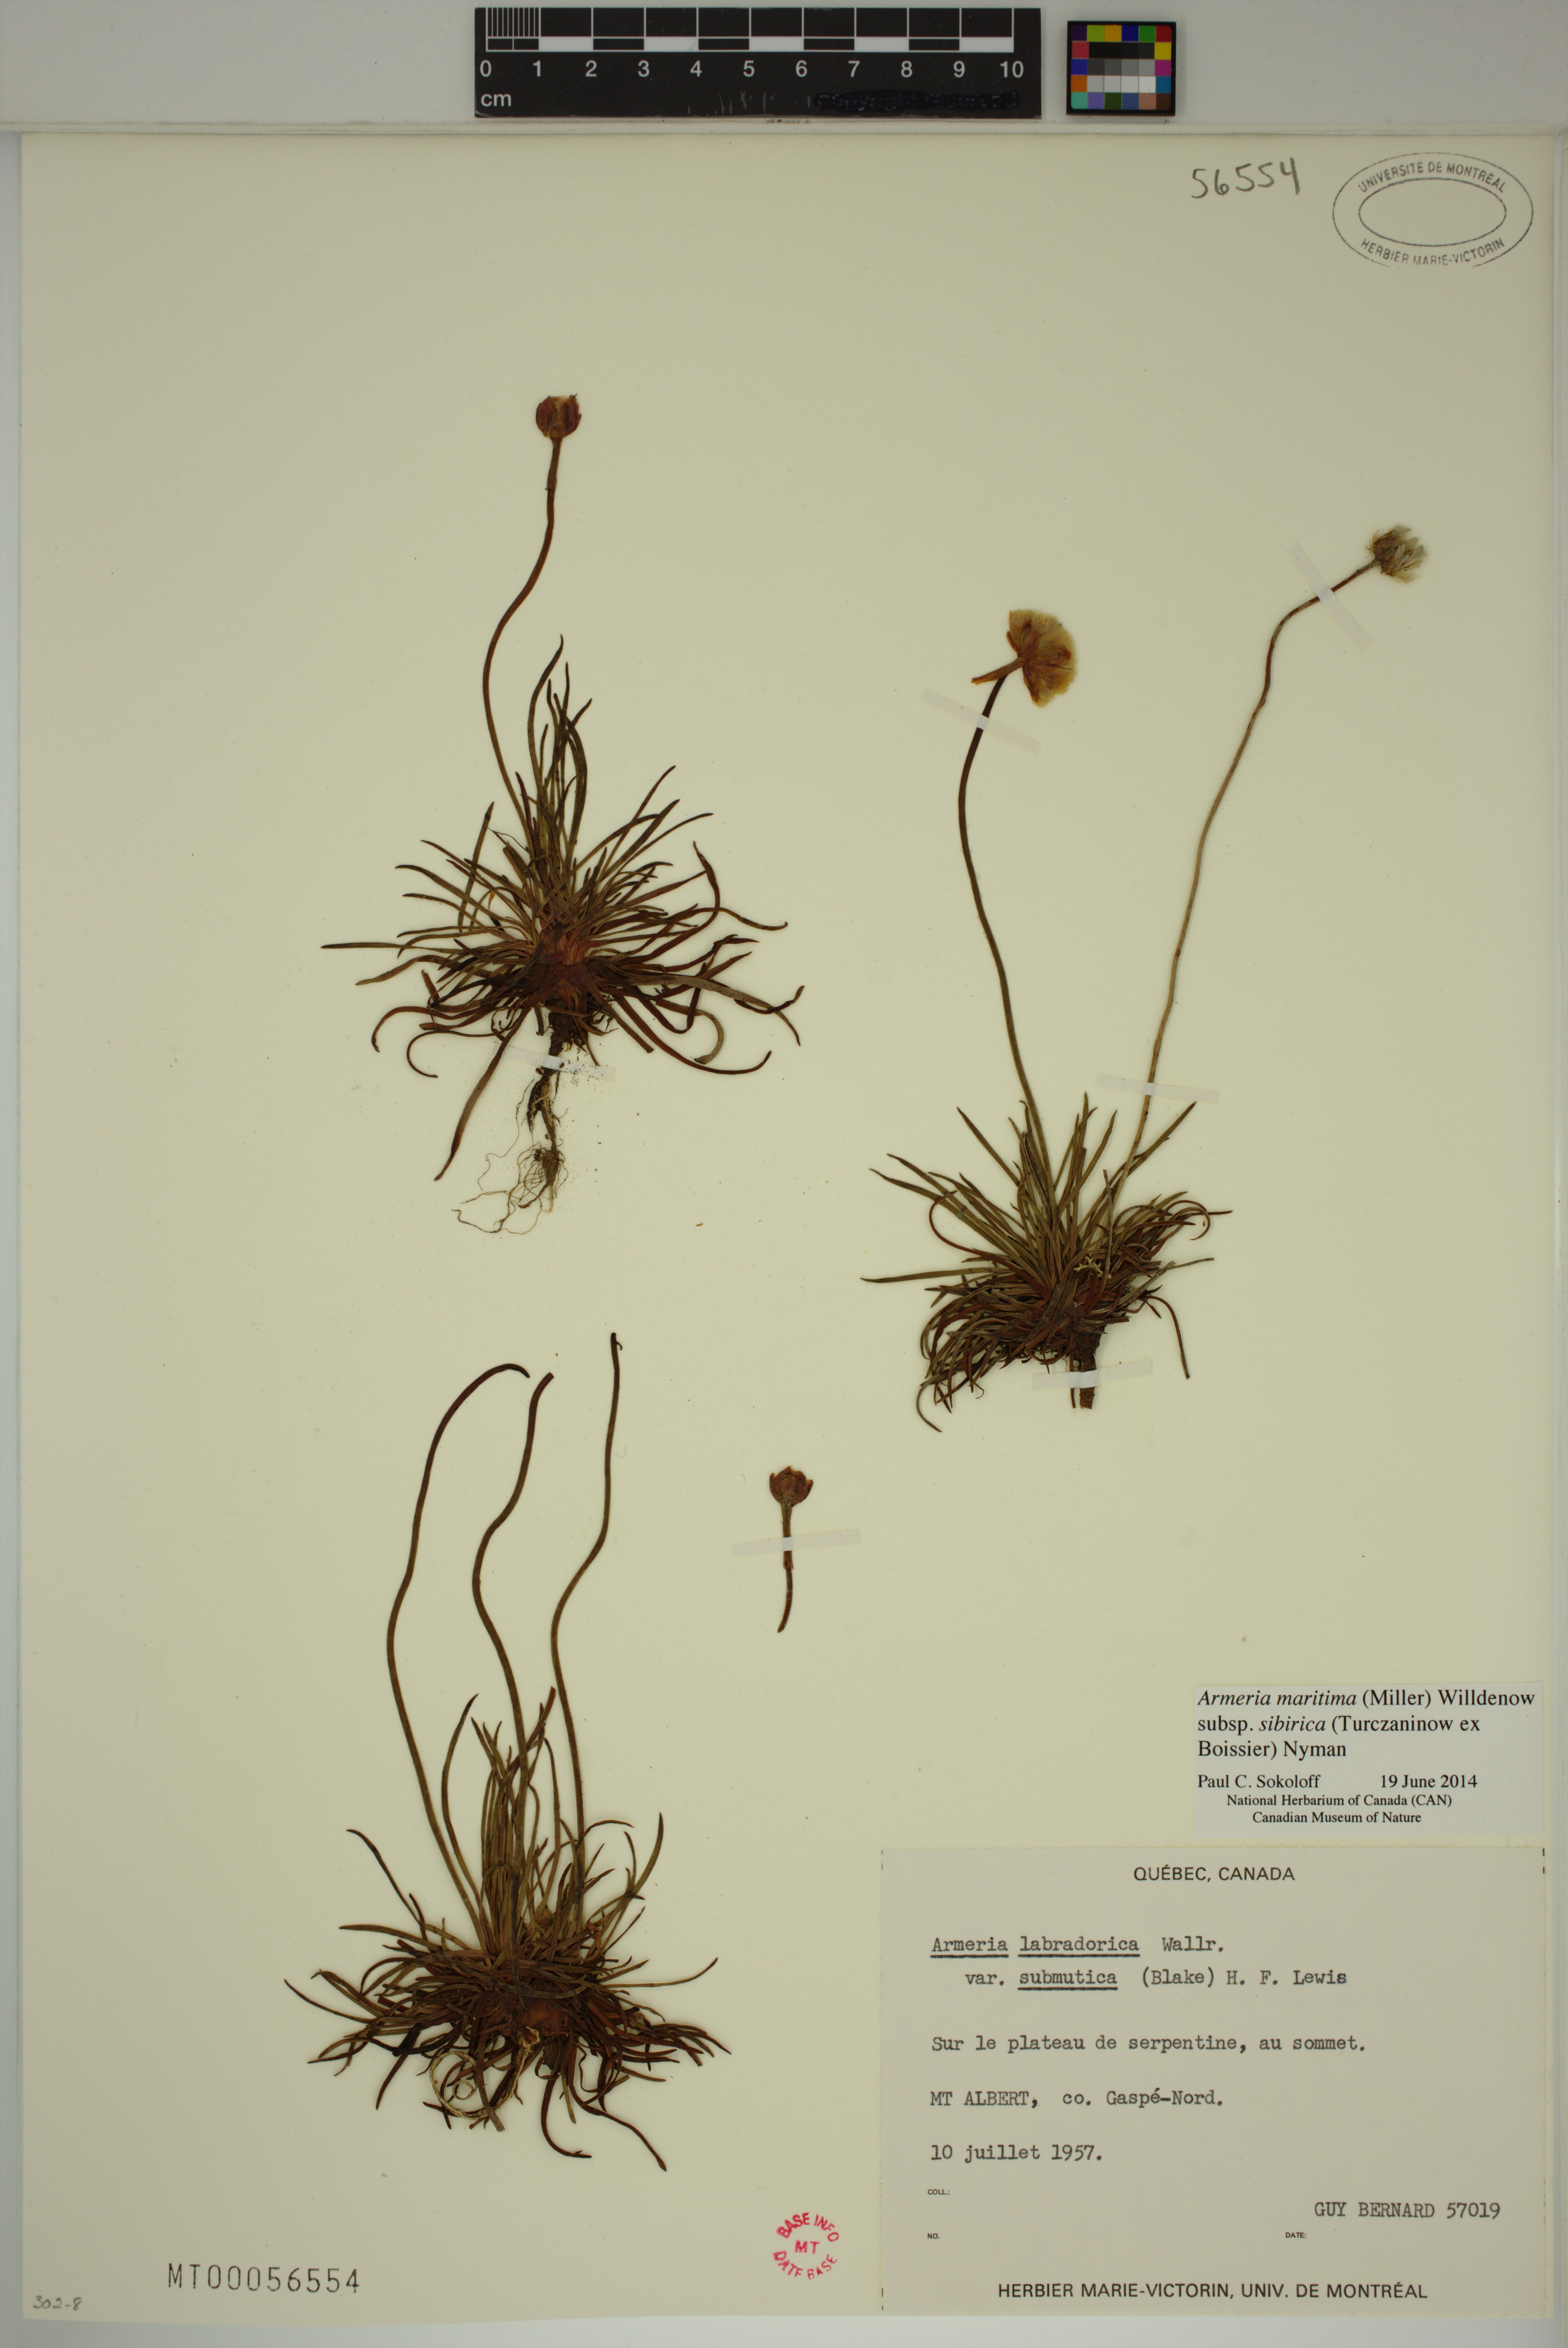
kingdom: Plantae
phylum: Tracheophyta
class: Magnoliopsida
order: Caryophyllales
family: Plumbaginaceae
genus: Armeria
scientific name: Armeria maritima
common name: Thrift
